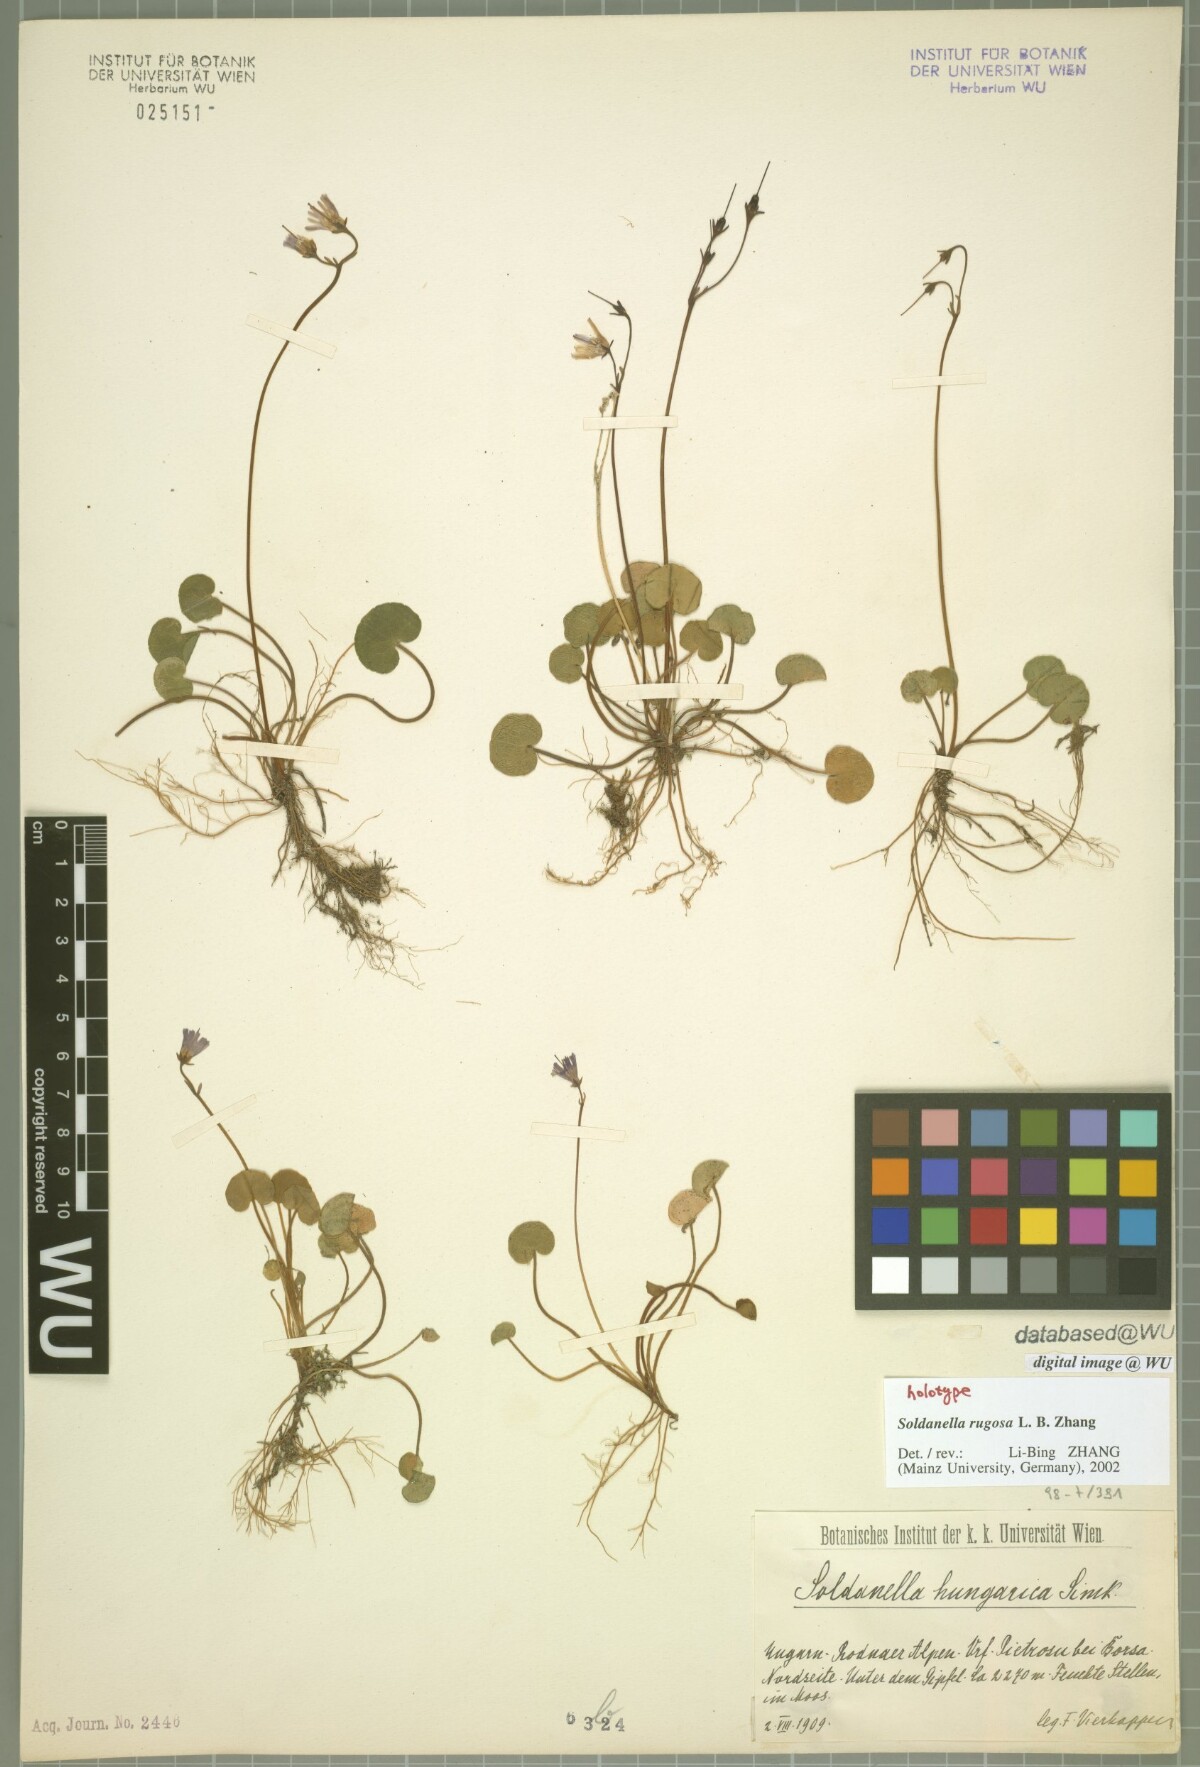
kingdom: Plantae
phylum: Tracheophyta
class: Magnoliopsida
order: Ericales
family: Primulaceae
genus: Soldanella
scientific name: Soldanella rugosa
